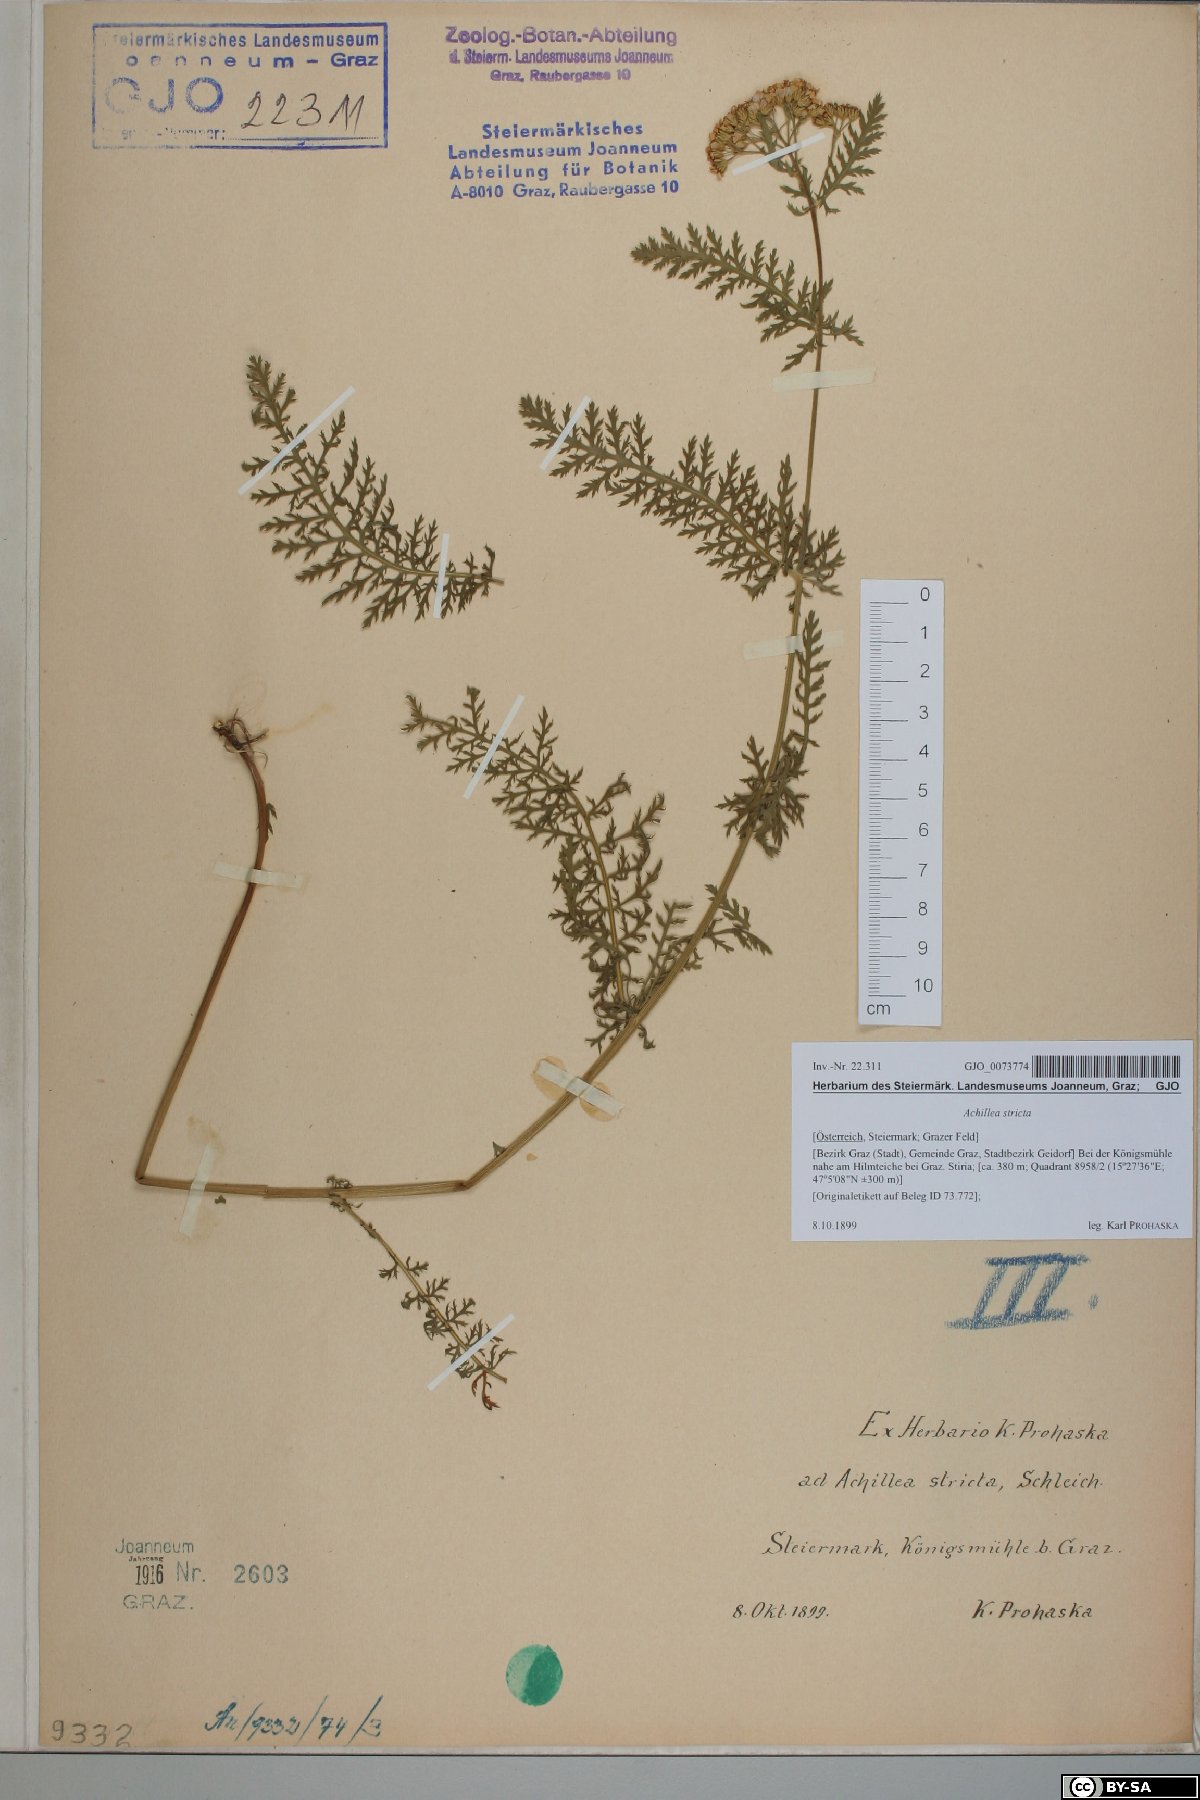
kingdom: Plantae
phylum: Tracheophyta
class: Magnoliopsida
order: Asterales
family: Asteraceae
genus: Achillea
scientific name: Achillea distans
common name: Tall yarrow
